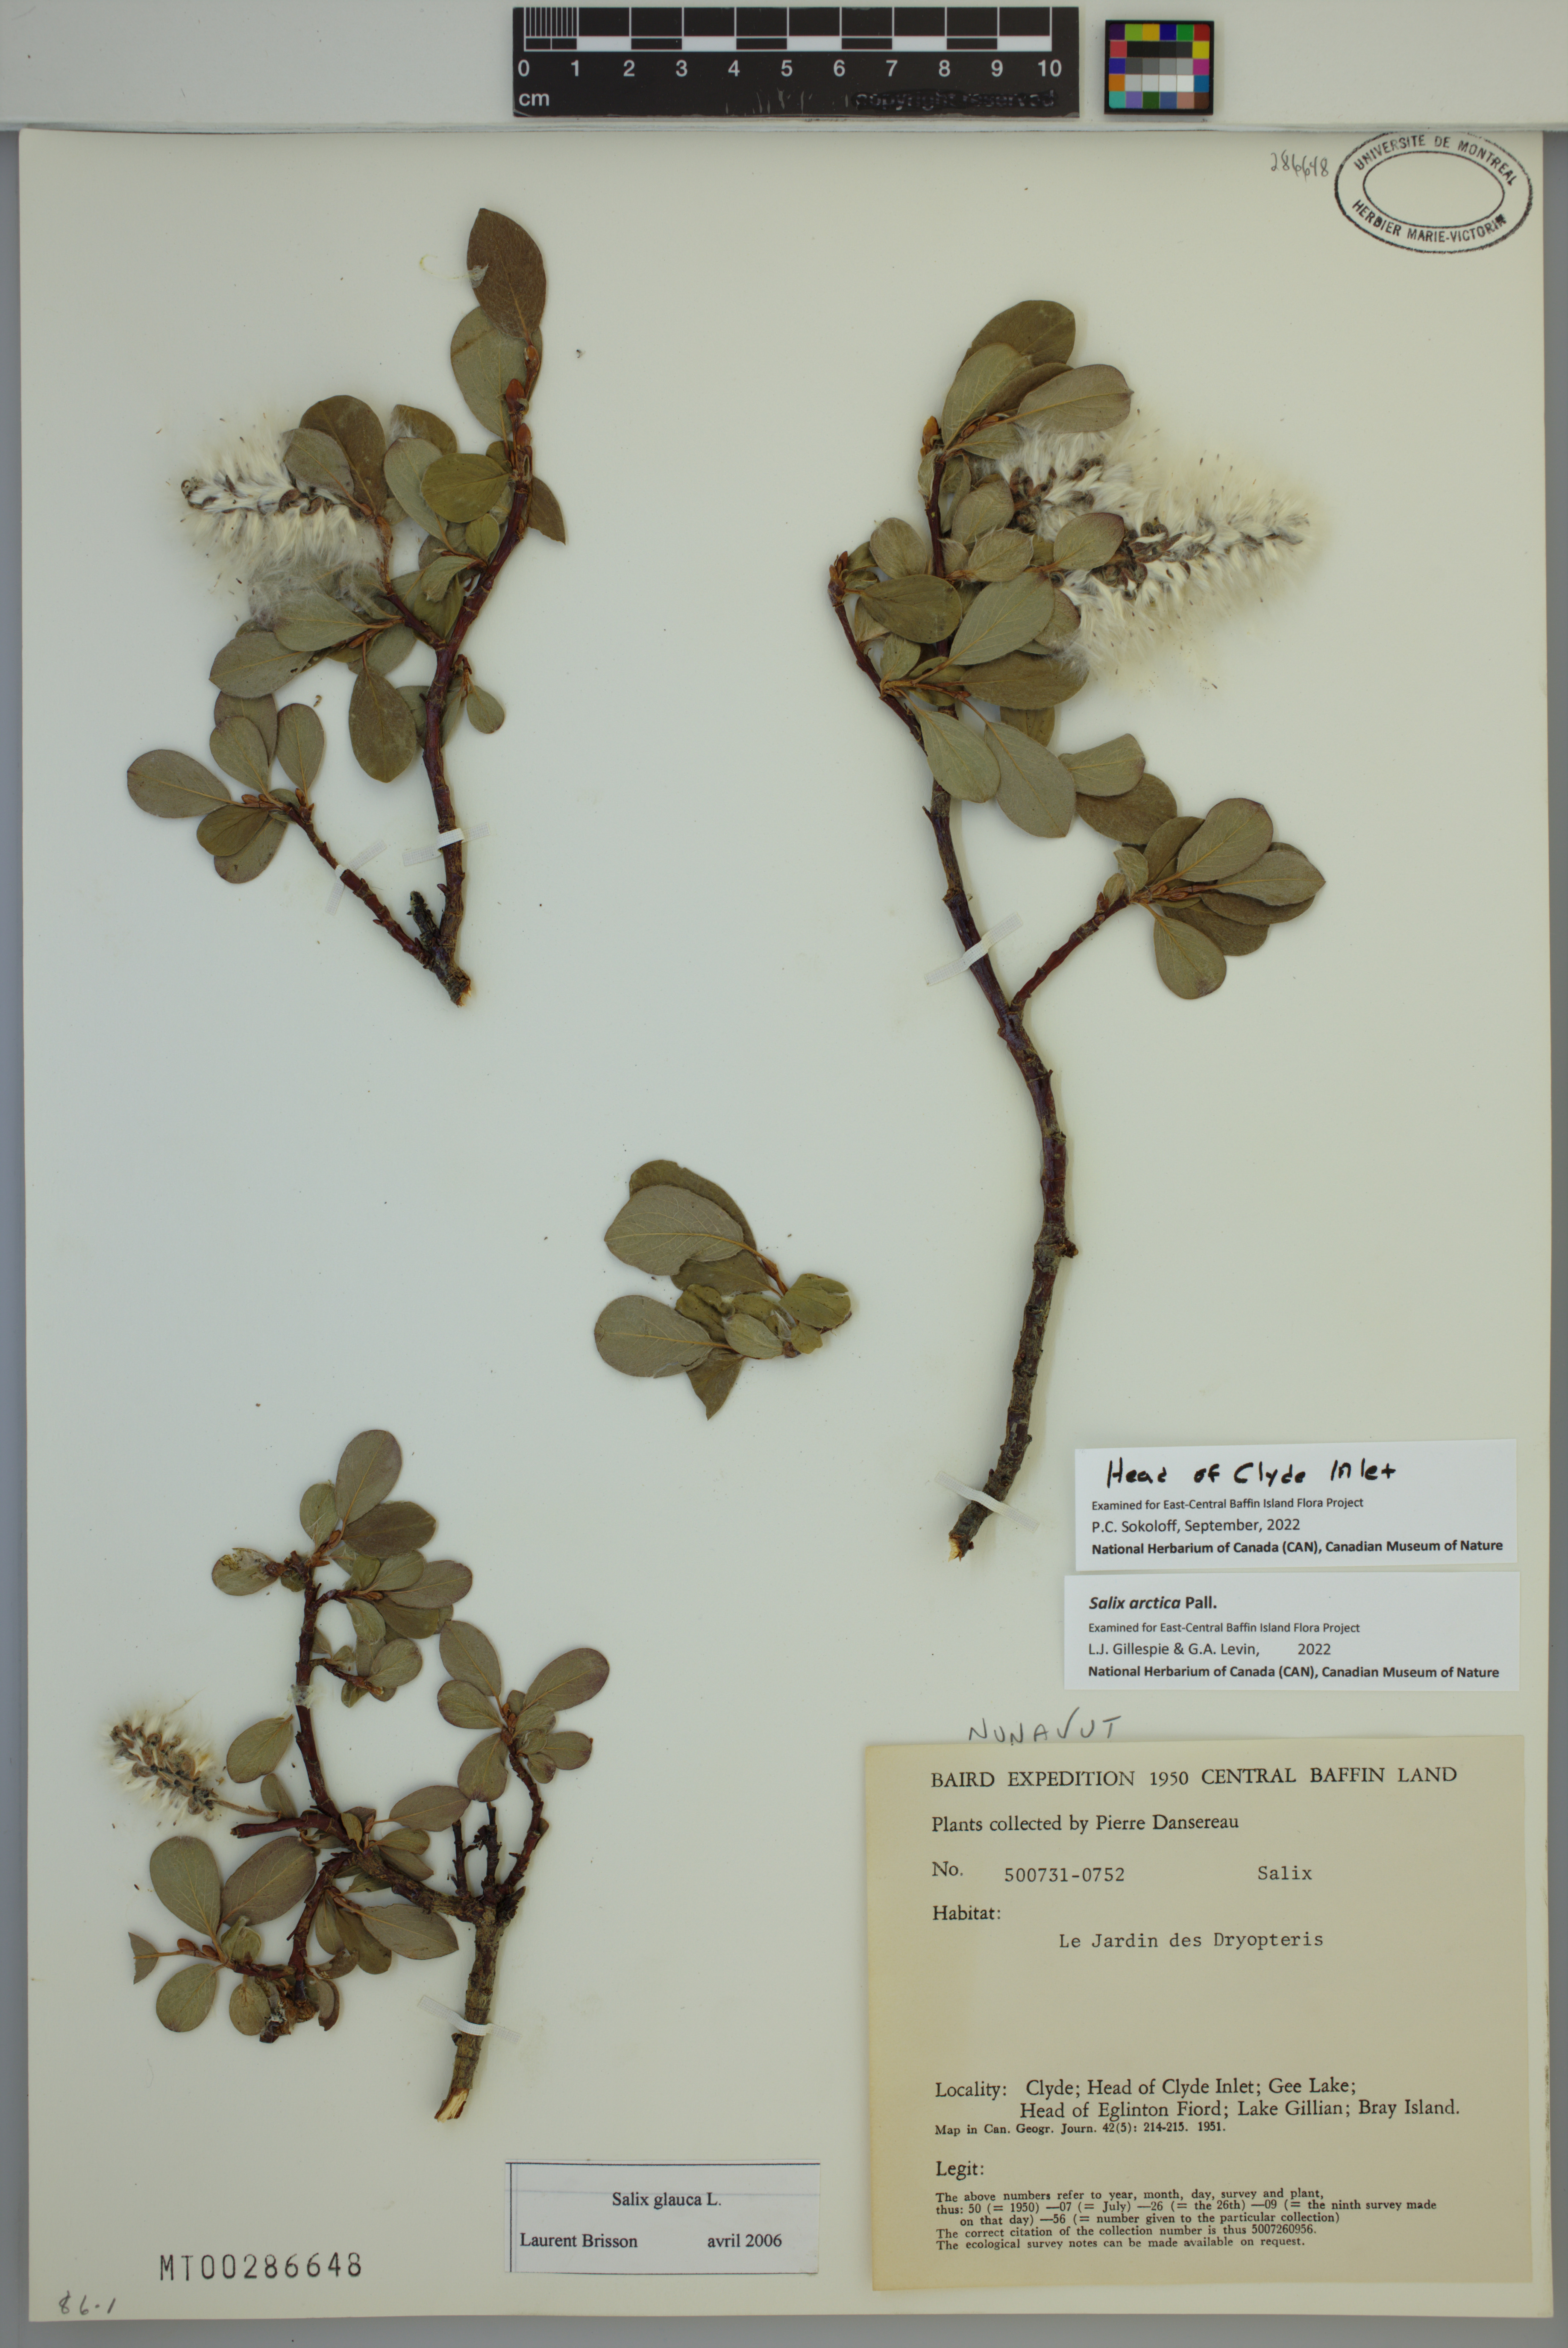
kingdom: Plantae
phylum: Tracheophyta
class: Magnoliopsida
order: Malpighiales
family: Salicaceae
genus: Salix
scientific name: Salix arctica
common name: Arctic willow
